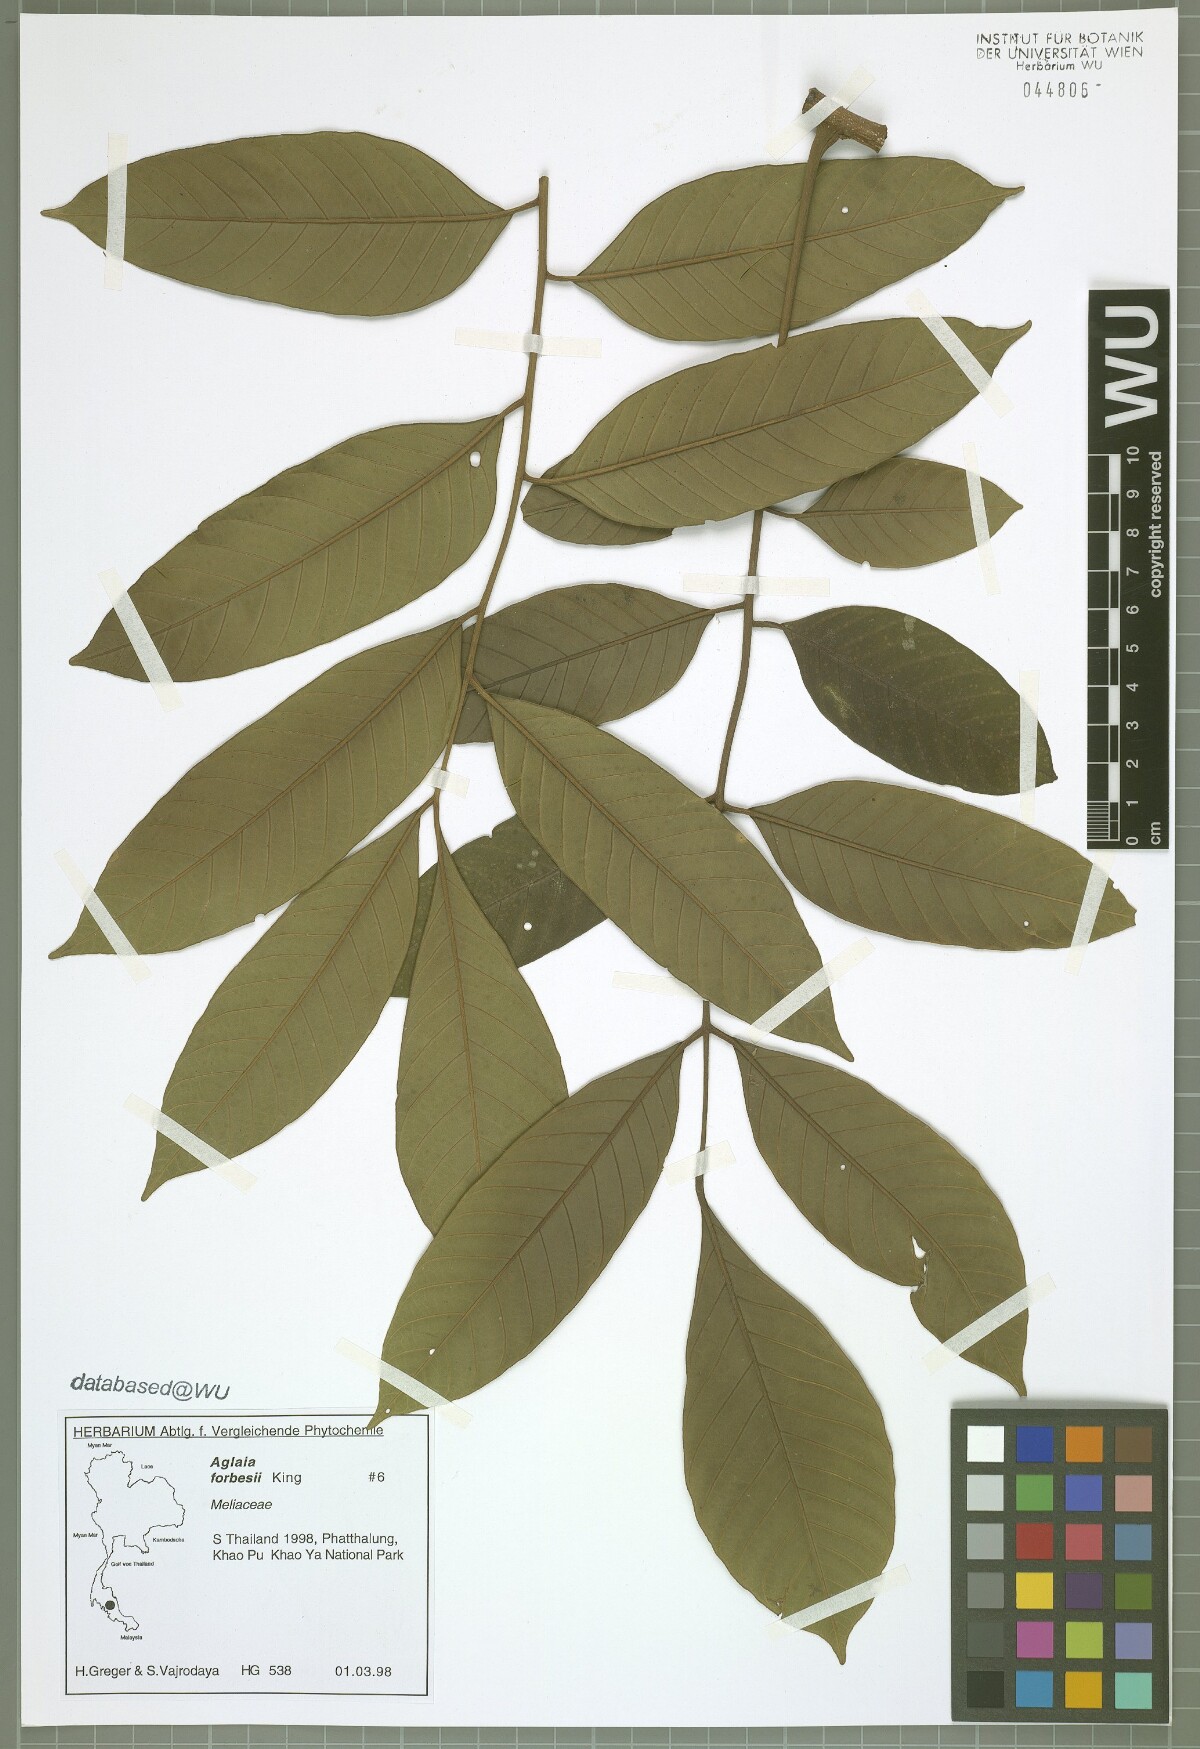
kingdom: Plantae
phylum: Tracheophyta
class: Magnoliopsida
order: Sapindales
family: Meliaceae
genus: Aglaia
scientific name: Aglaia forbesii
